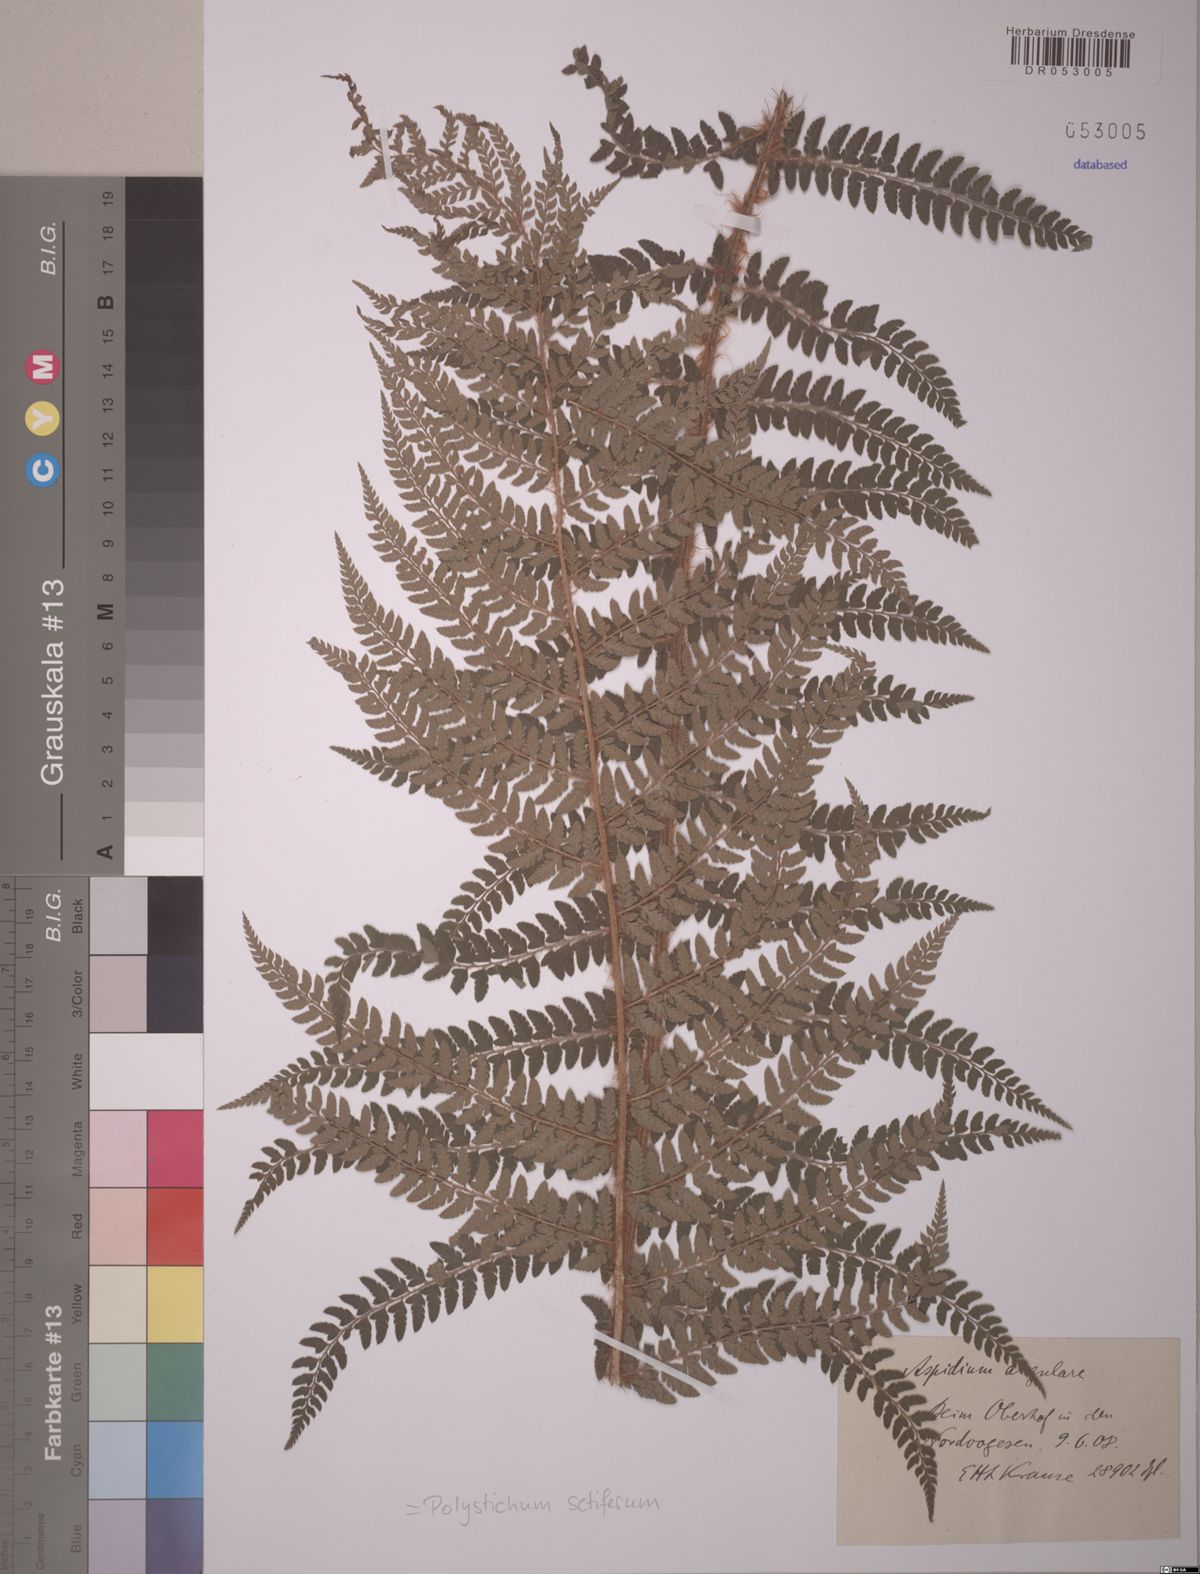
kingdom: Plantae
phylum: Tracheophyta
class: Polypodiopsida
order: Polypodiales
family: Dryopteridaceae
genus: Polystichum
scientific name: Polystichum setiferum
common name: Soft shield-fern
